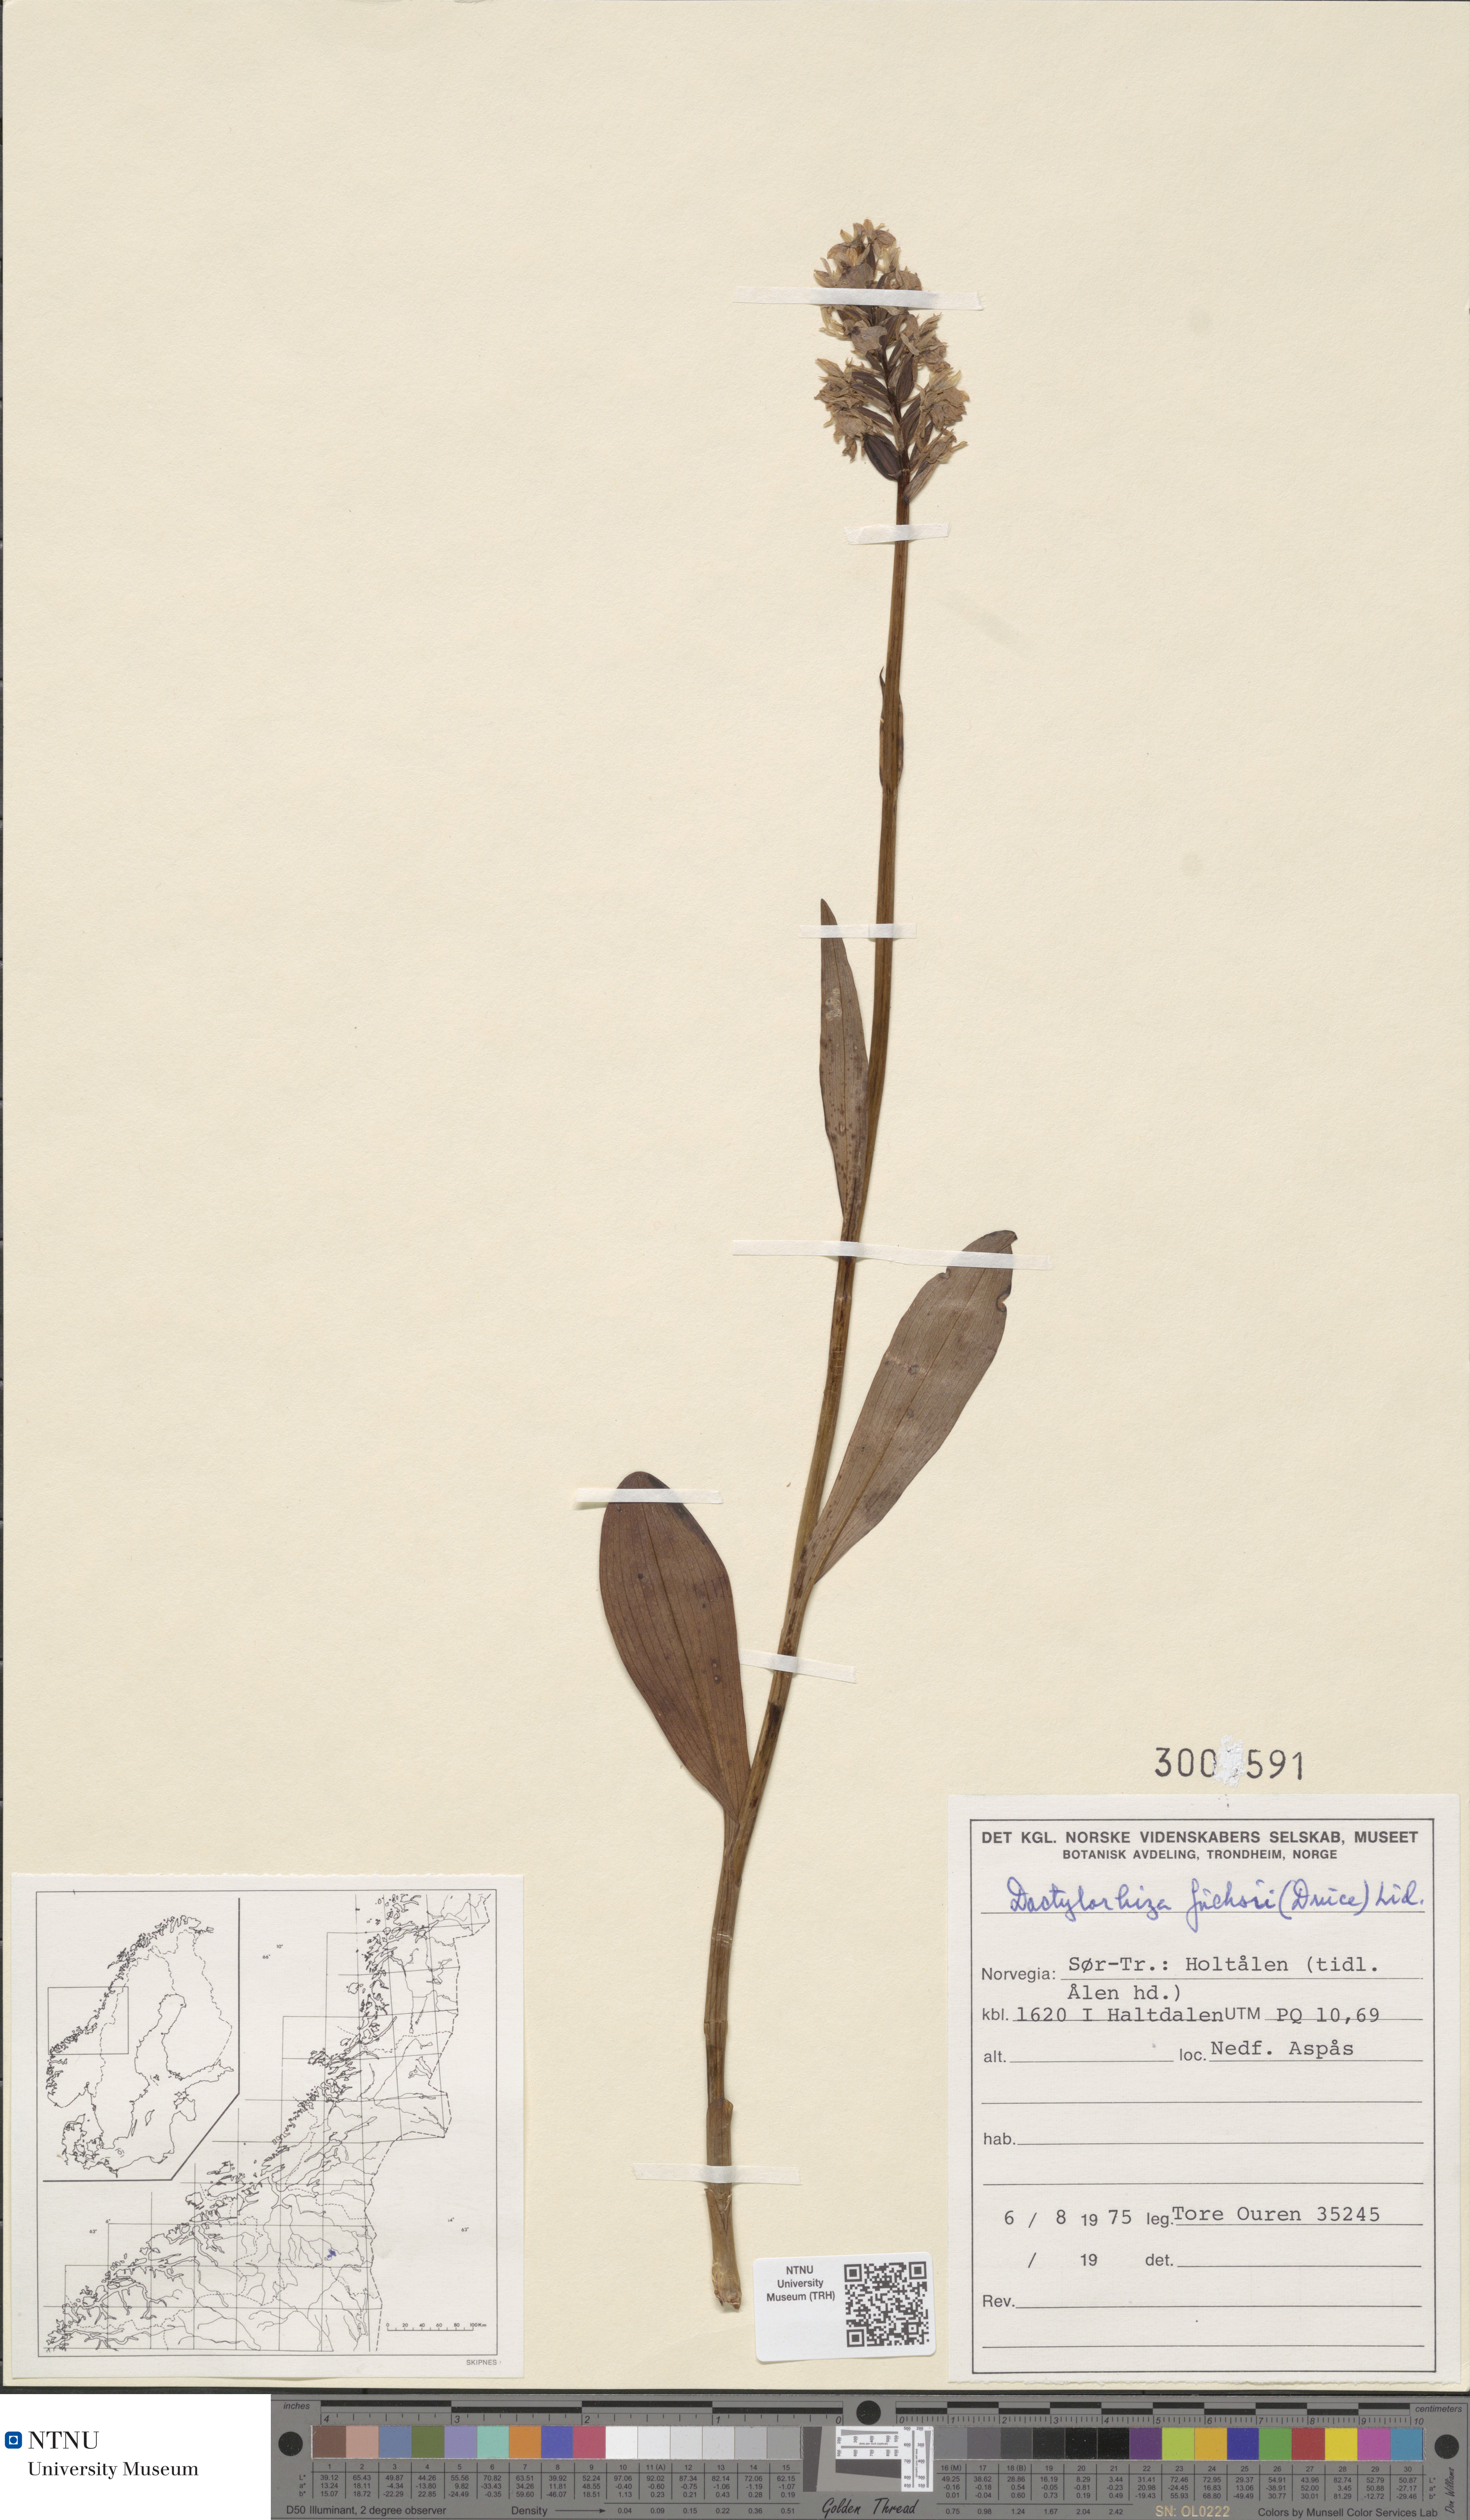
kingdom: Plantae
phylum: Tracheophyta
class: Liliopsida
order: Asparagales
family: Orchidaceae
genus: Dactylorhiza
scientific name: Dactylorhiza maculata
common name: Heath spotted-orchid
